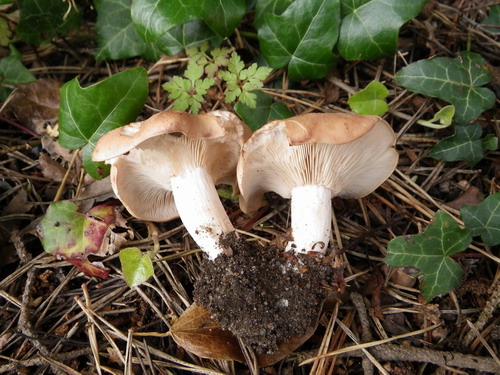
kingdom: Fungi
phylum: Basidiomycota
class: Agaricomycetes
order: Agaricales
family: Entolomataceae
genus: Clitopilus
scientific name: Clitopilus geminus
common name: kødfarvet troldhat
